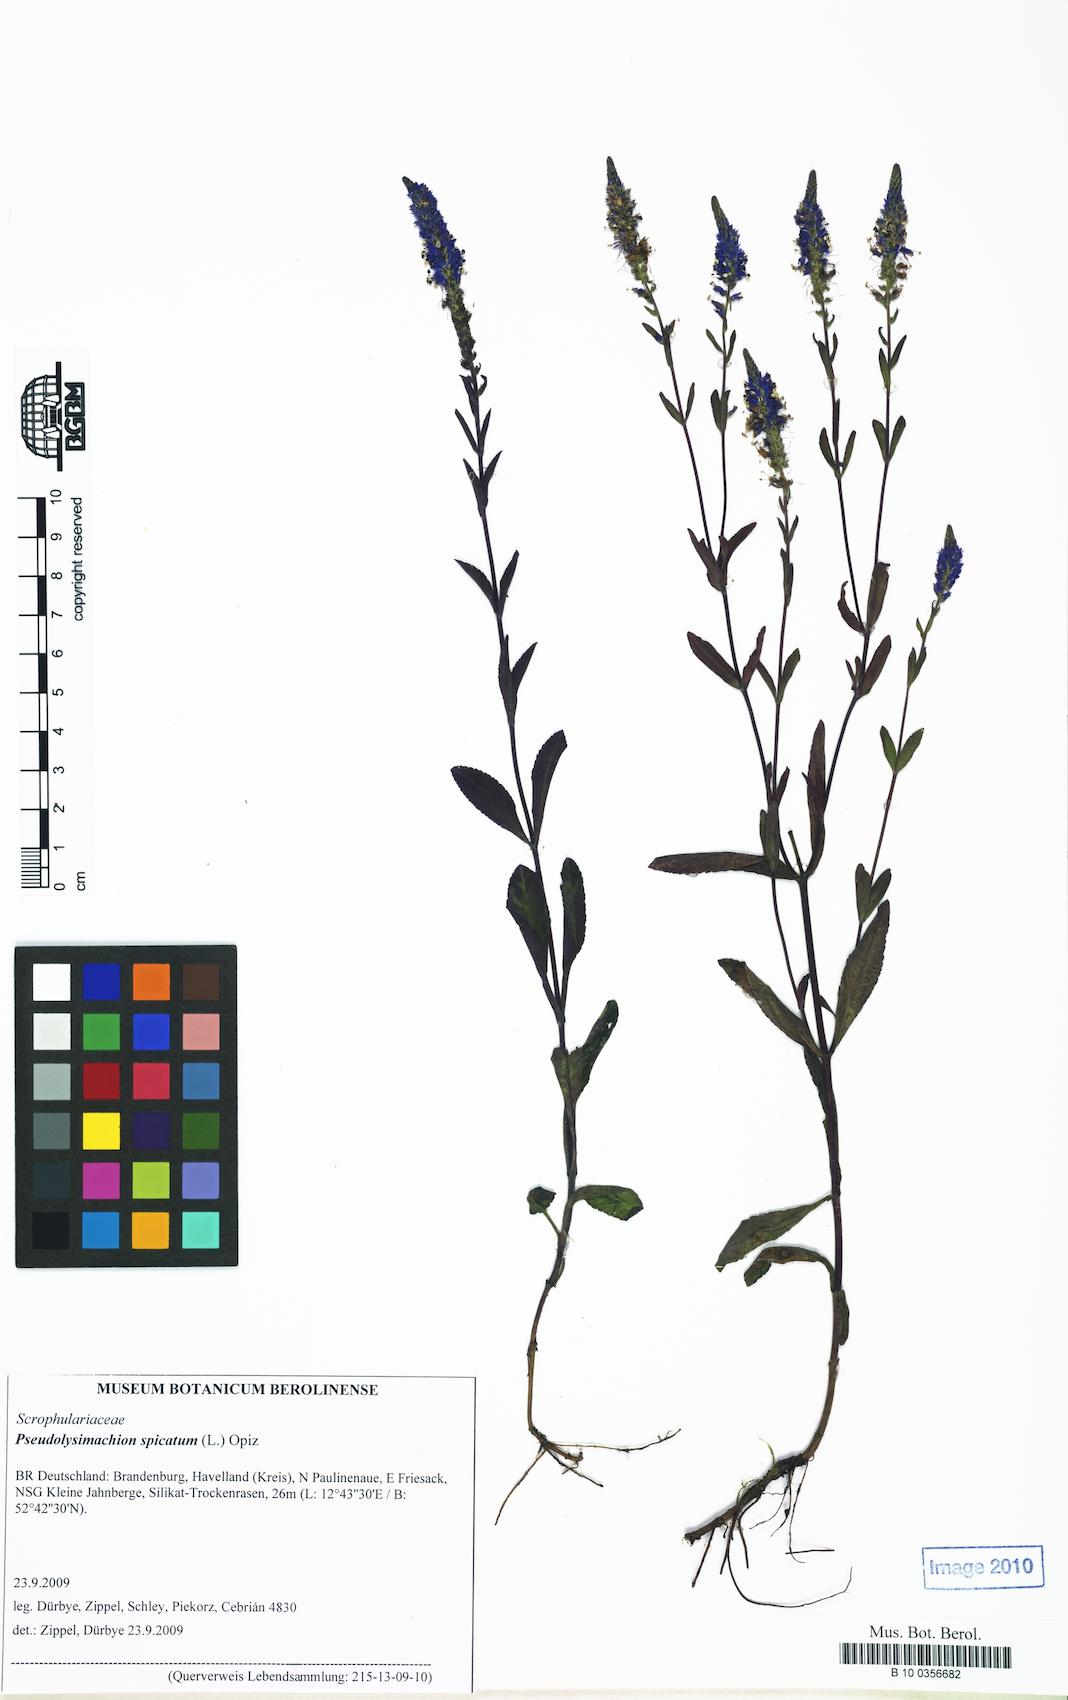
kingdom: Plantae
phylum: Tracheophyta
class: Magnoliopsida
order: Lamiales
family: Plantaginaceae
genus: Veronica
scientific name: Veronica spicata
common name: Spiked speedwell
